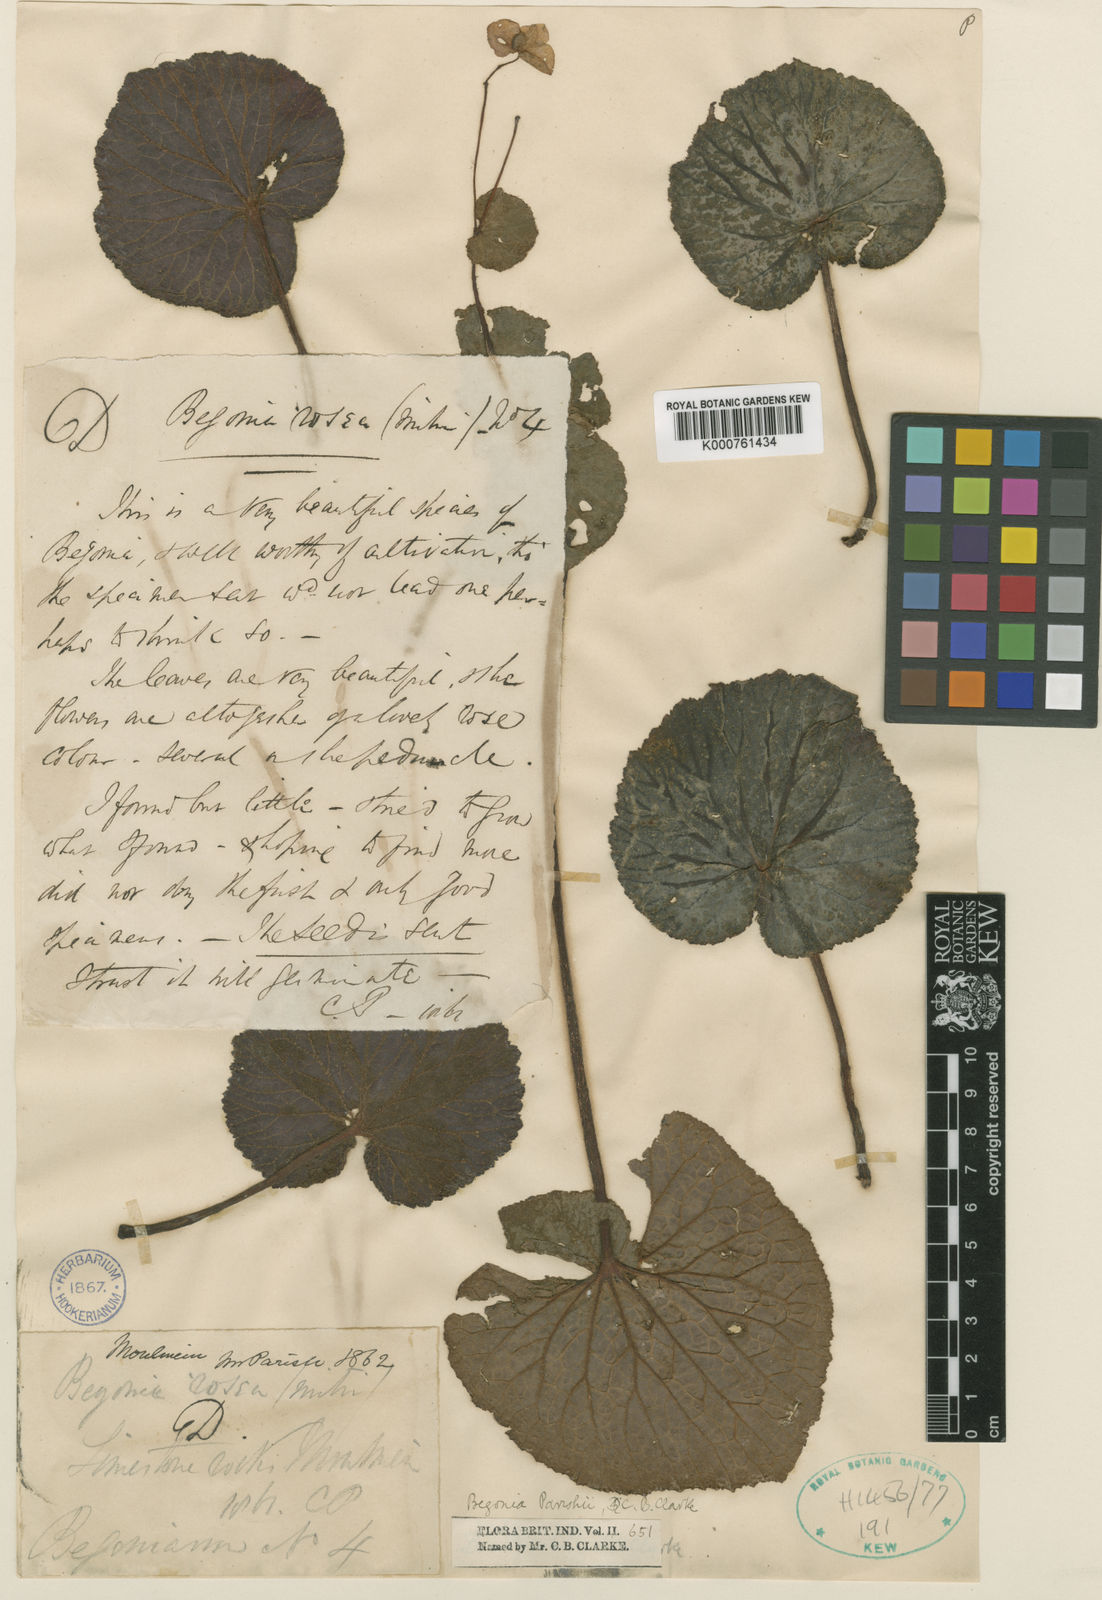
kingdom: Plantae
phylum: Tracheophyta
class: Magnoliopsida
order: Cucurbitales
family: Begoniaceae
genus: Begonia
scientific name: Begonia parishii
